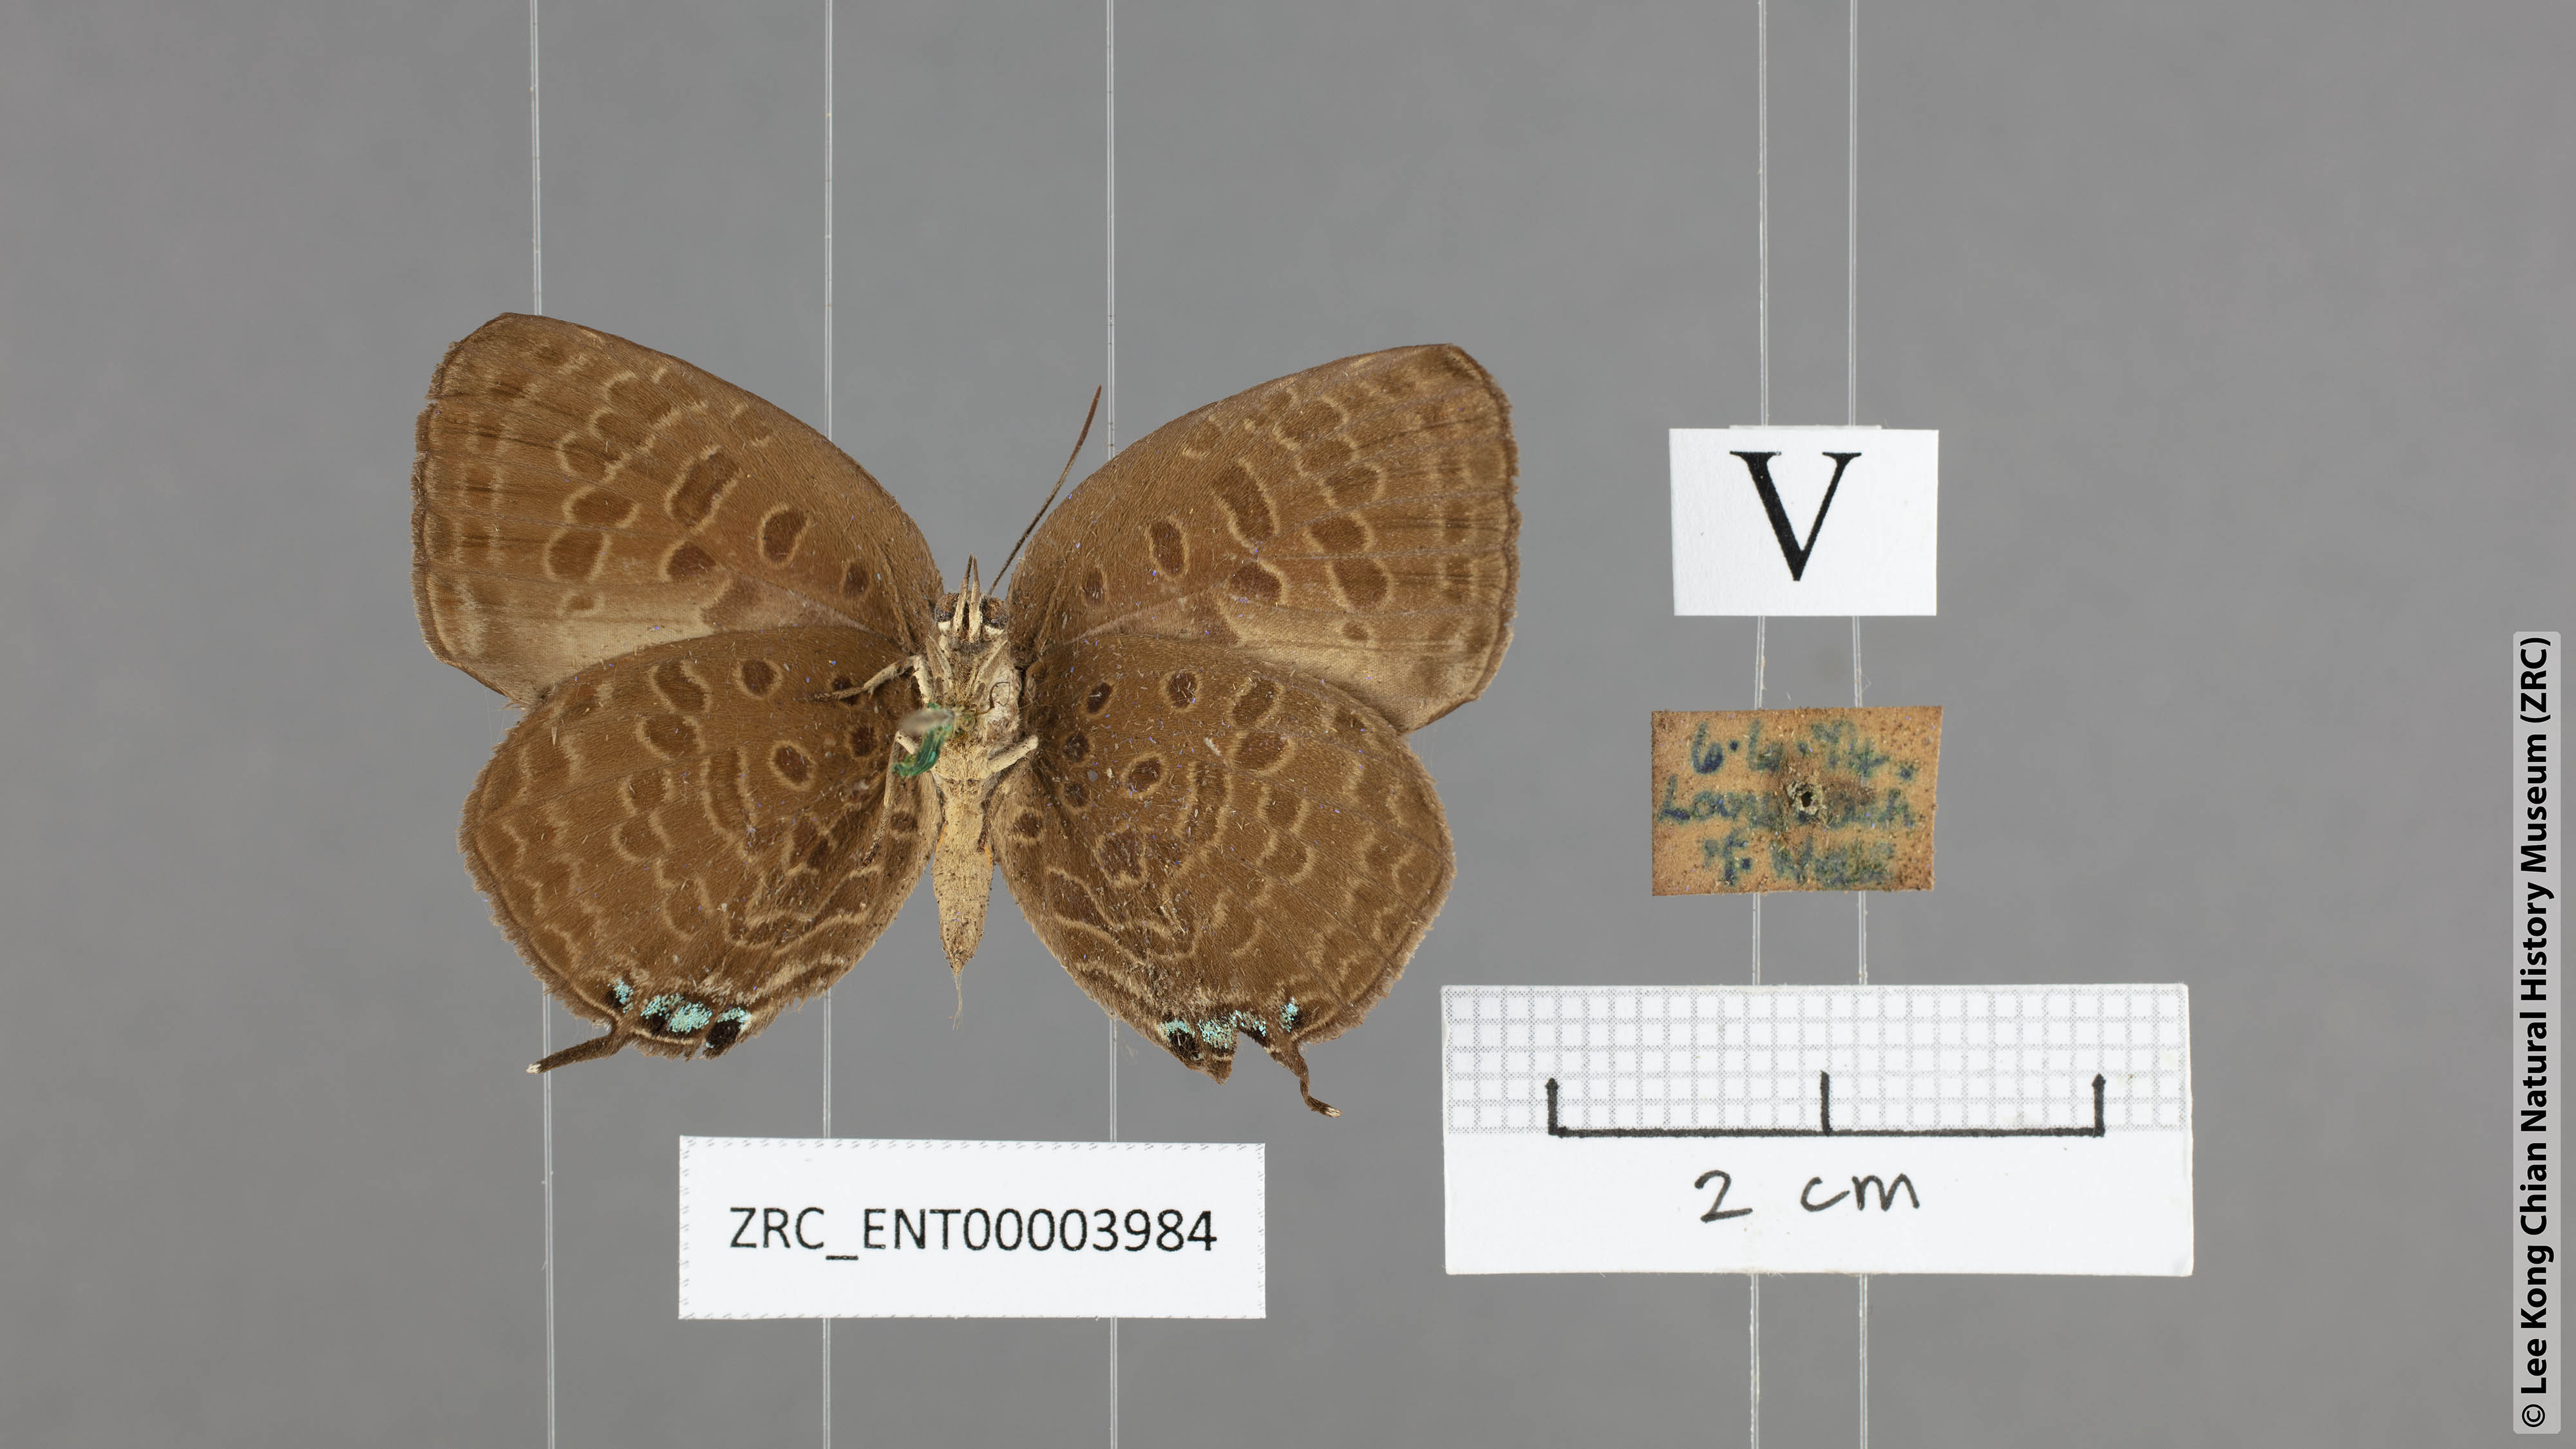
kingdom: Animalia
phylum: Arthropoda
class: Insecta
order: Lepidoptera
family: Lycaenidae
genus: Arhopala
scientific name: Arhopala atosia
